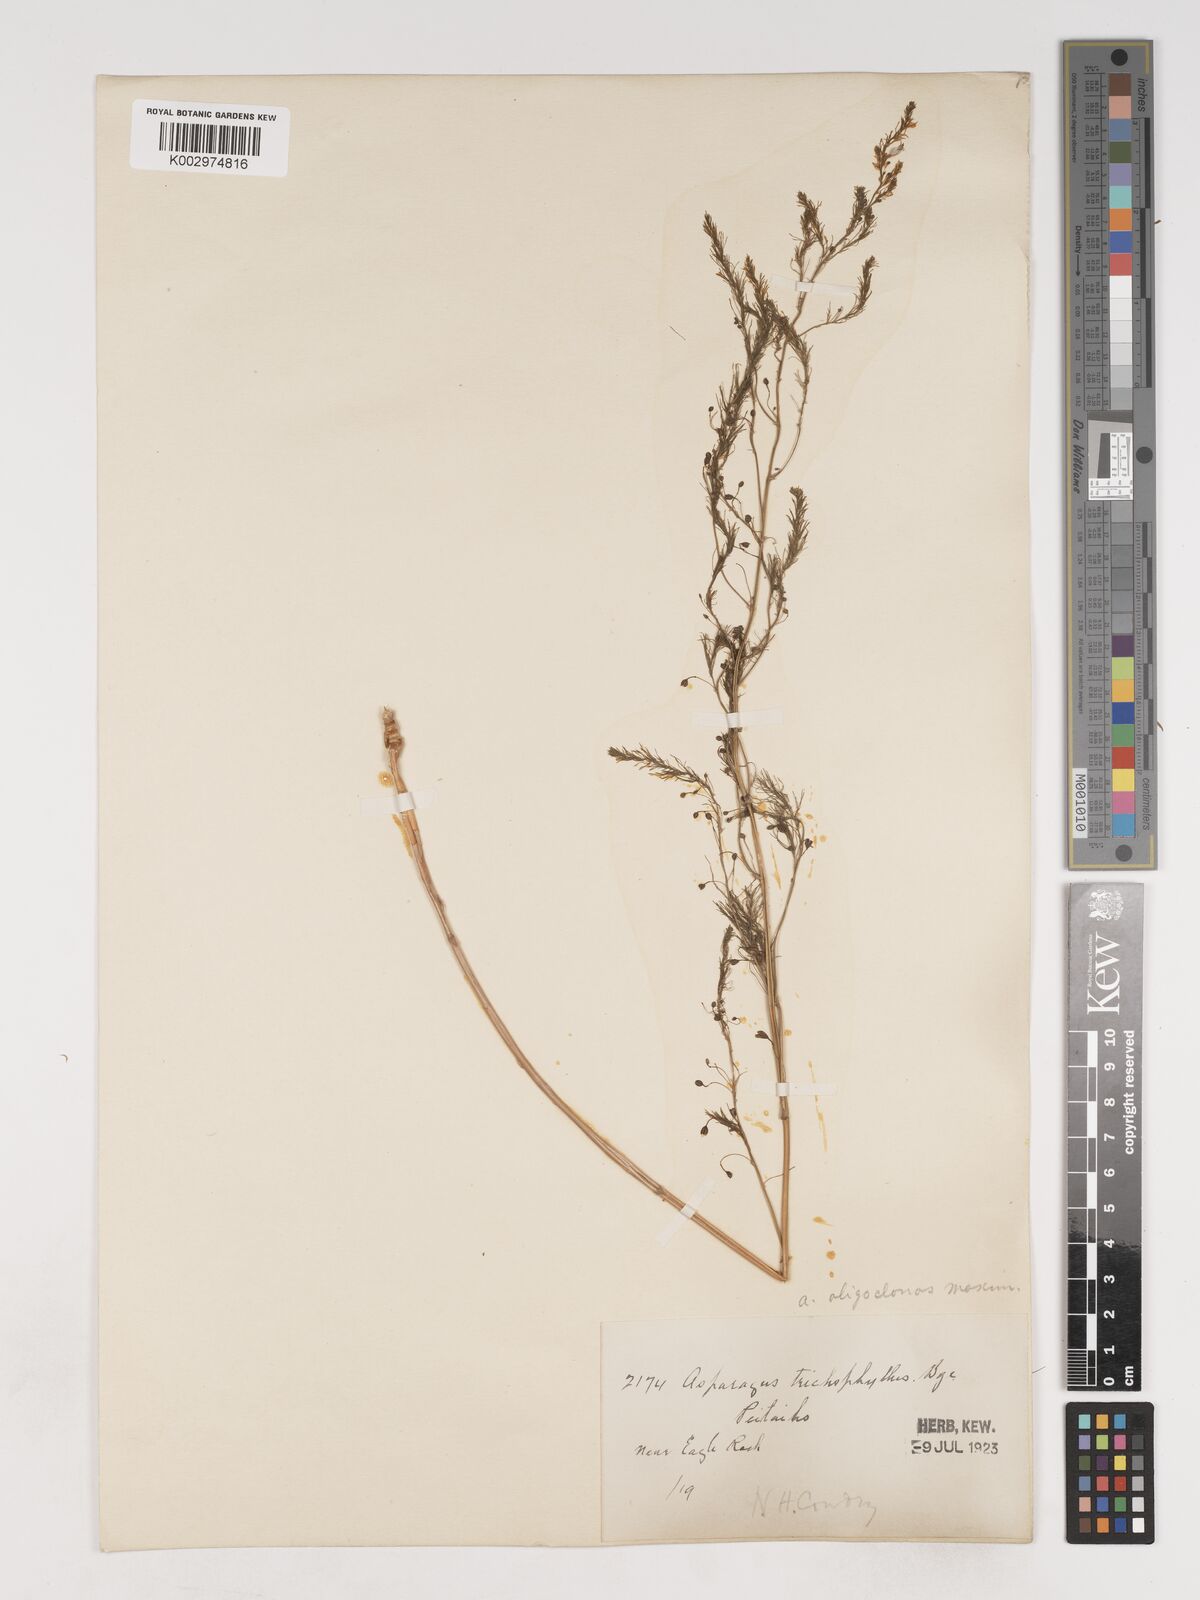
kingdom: Plantae
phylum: Tracheophyta
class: Liliopsida
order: Asparagales
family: Asparagaceae
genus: Asparagus
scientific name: Asparagus oligoclonos
